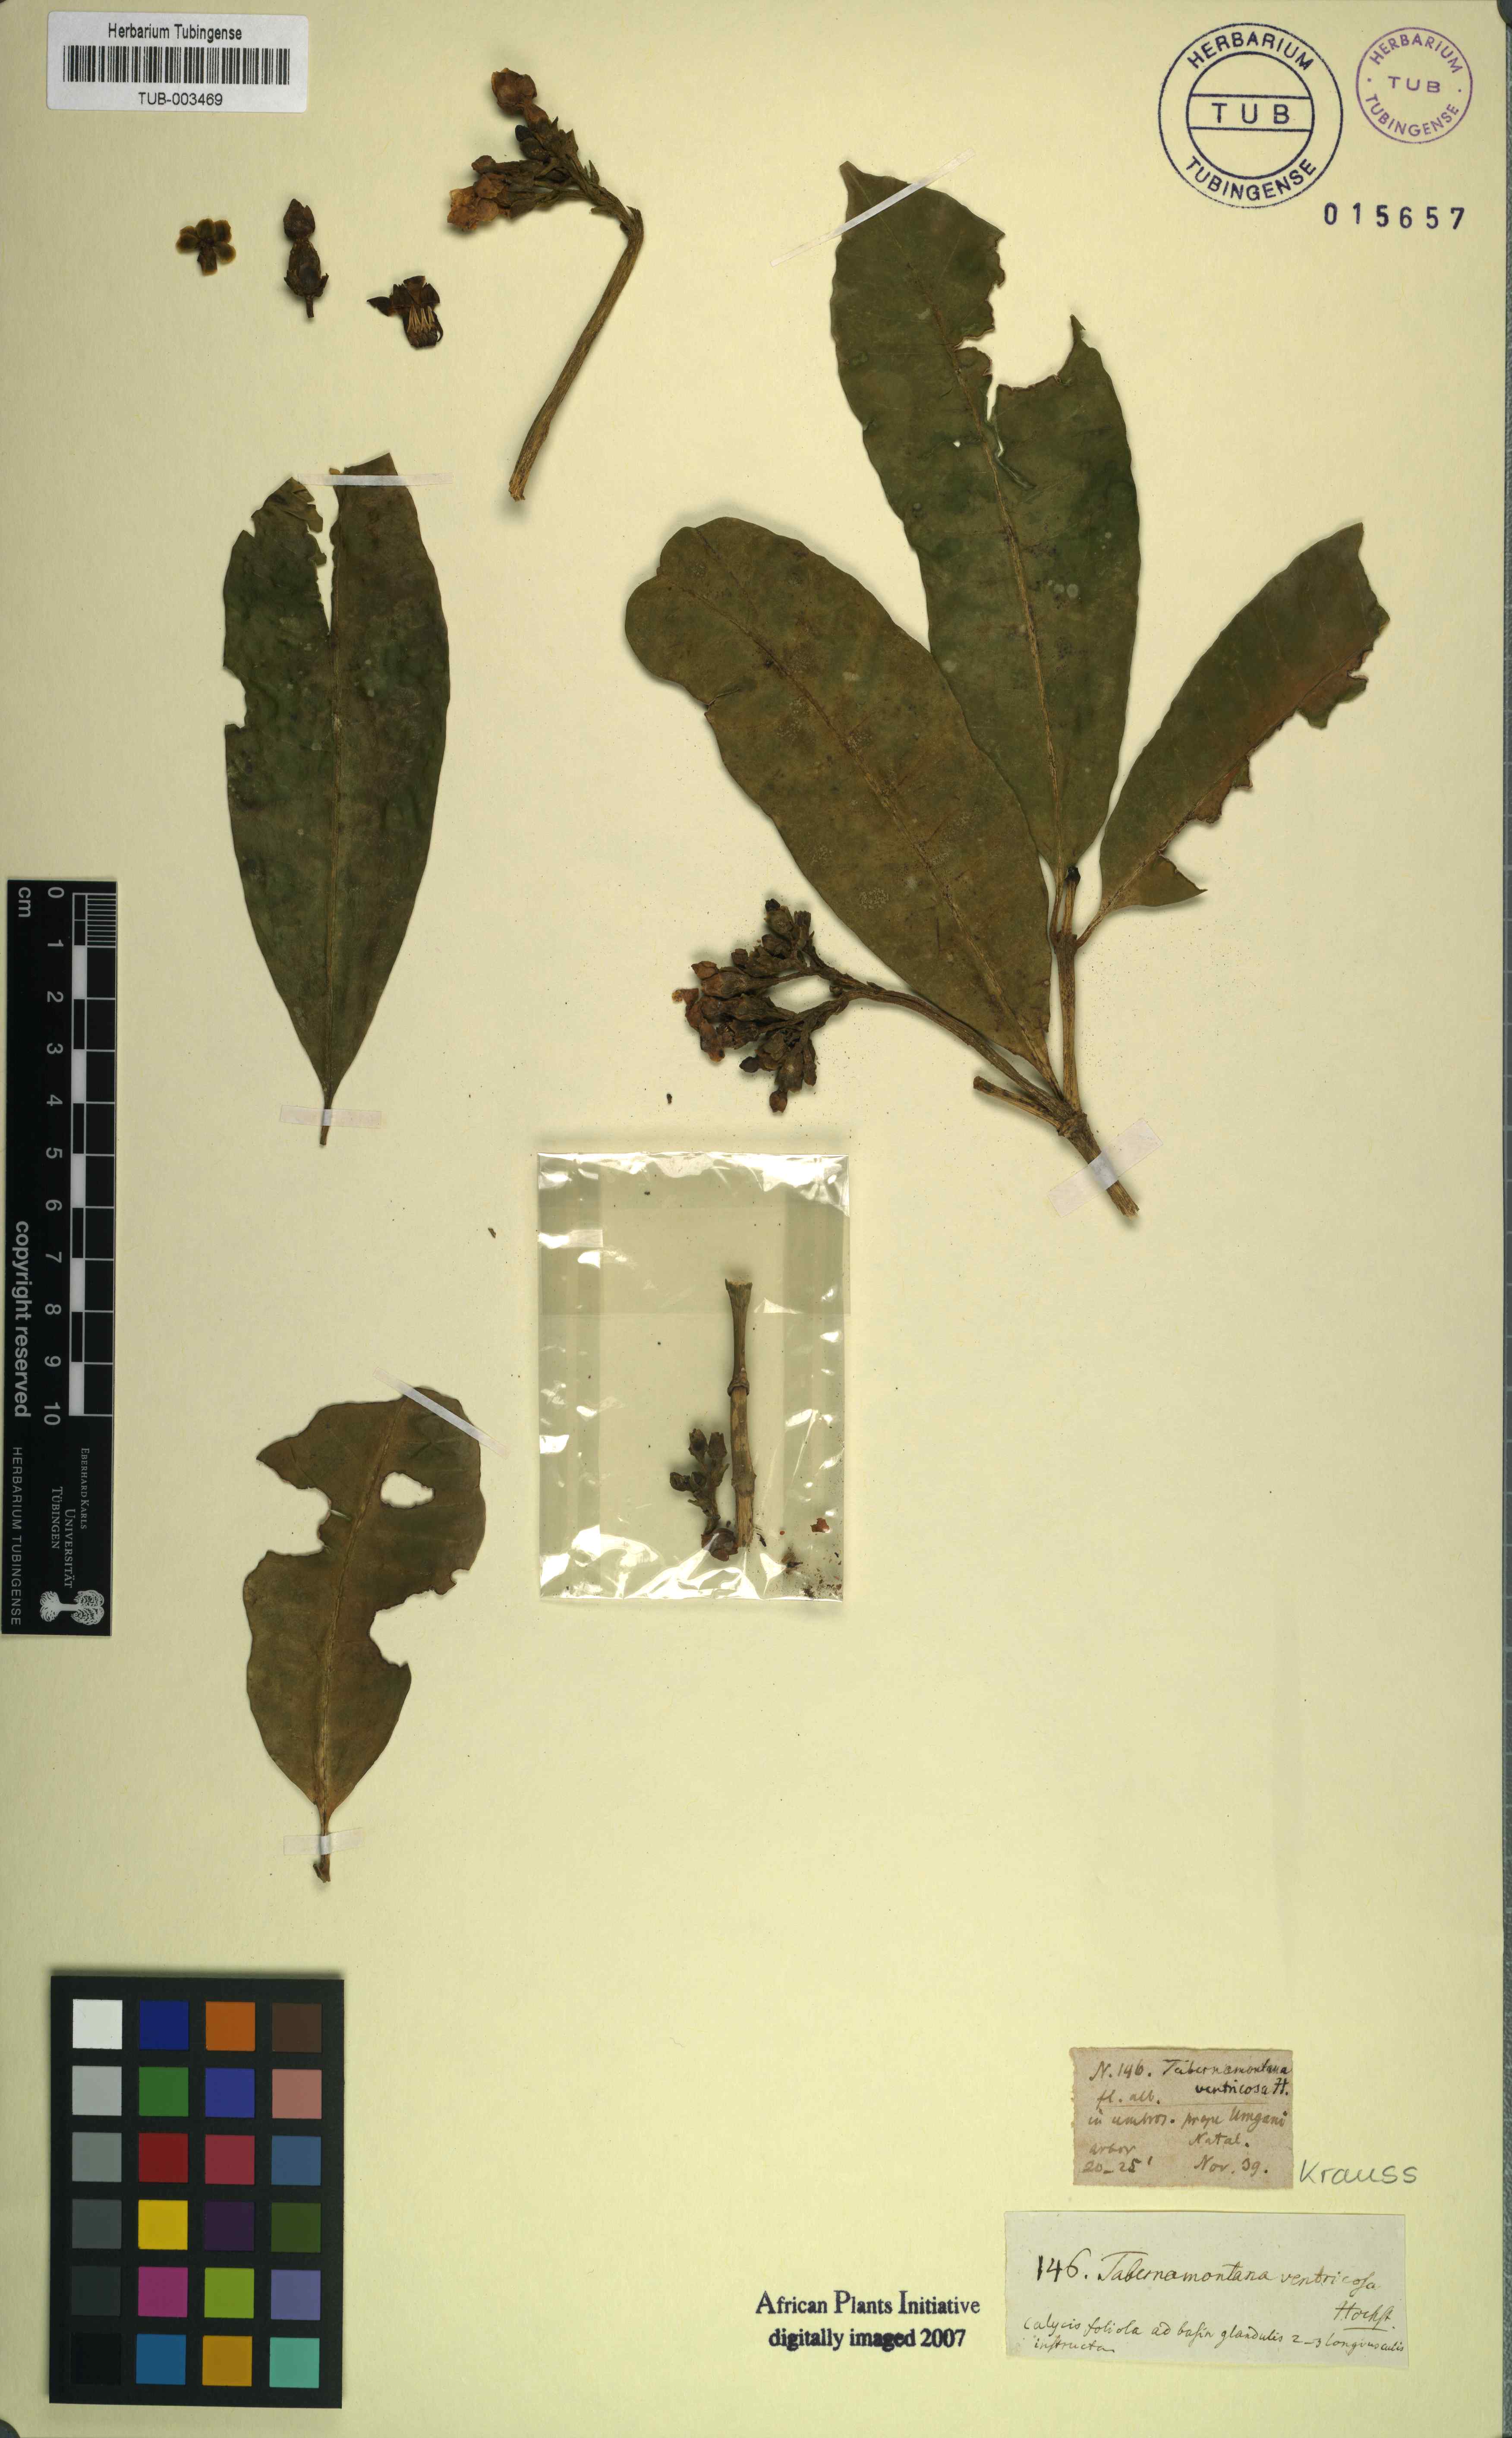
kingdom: Plantae
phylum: Tracheophyta
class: Magnoliopsida
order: Gentianales
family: Apocynaceae
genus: Tabernaemontana
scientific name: Tabernaemontana ventricosa
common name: Forest toad-tree
